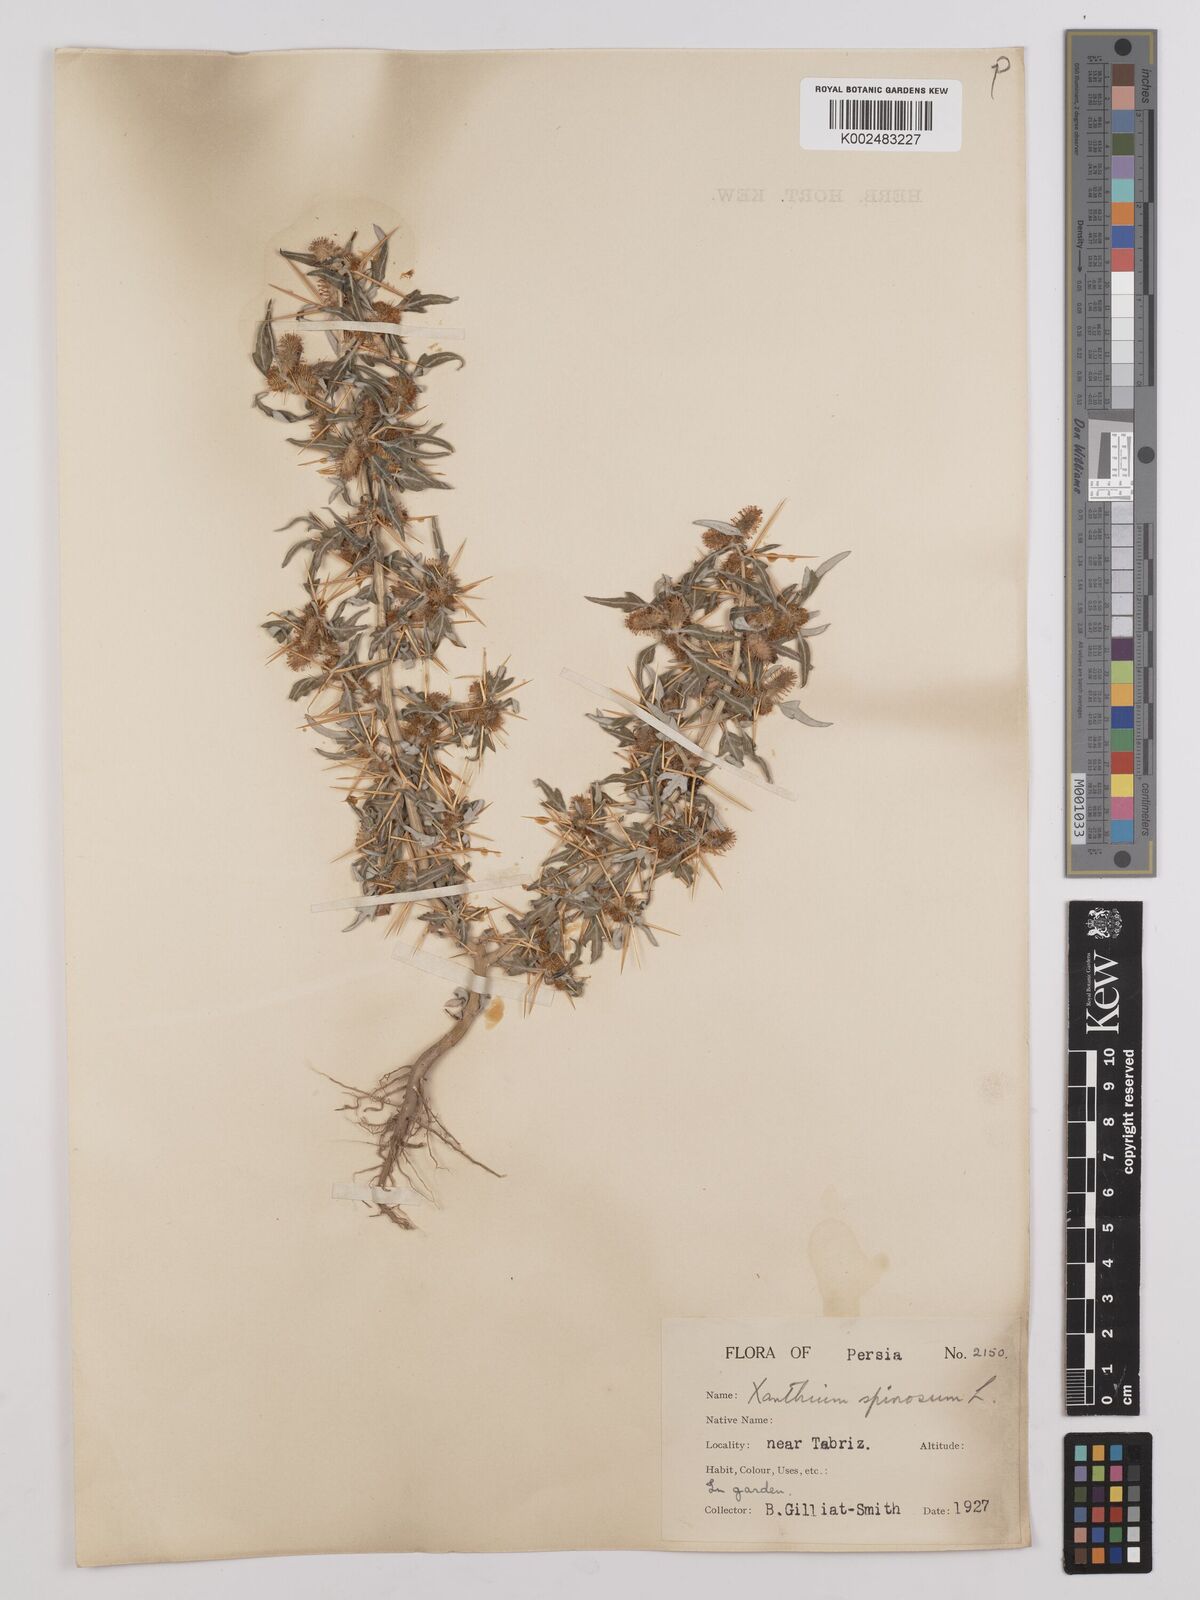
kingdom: Plantae
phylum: Tracheophyta
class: Magnoliopsida
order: Asterales
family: Asteraceae
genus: Xanthium
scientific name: Xanthium spinosum
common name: Spiny cocklebur
